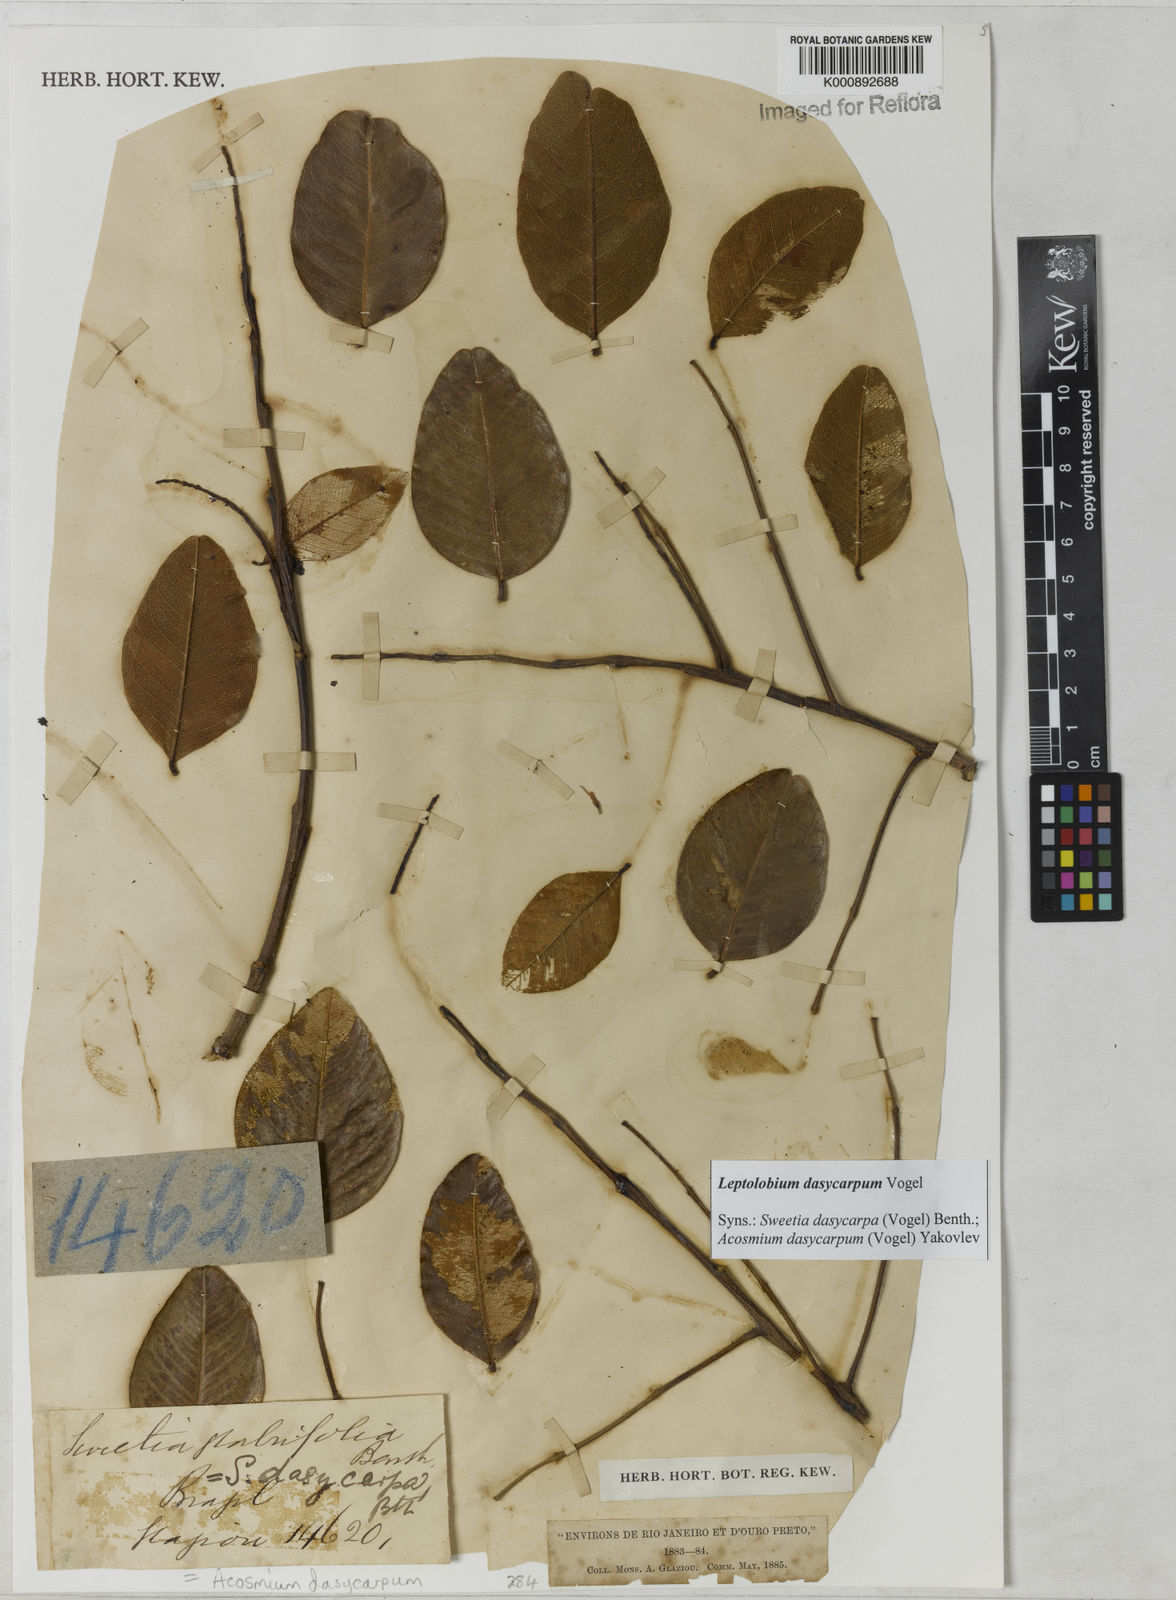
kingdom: Plantae
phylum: Tracheophyta
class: Magnoliopsida
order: Fabales
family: Fabaceae
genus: Leptolobium
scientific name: Leptolobium dasycarpum
